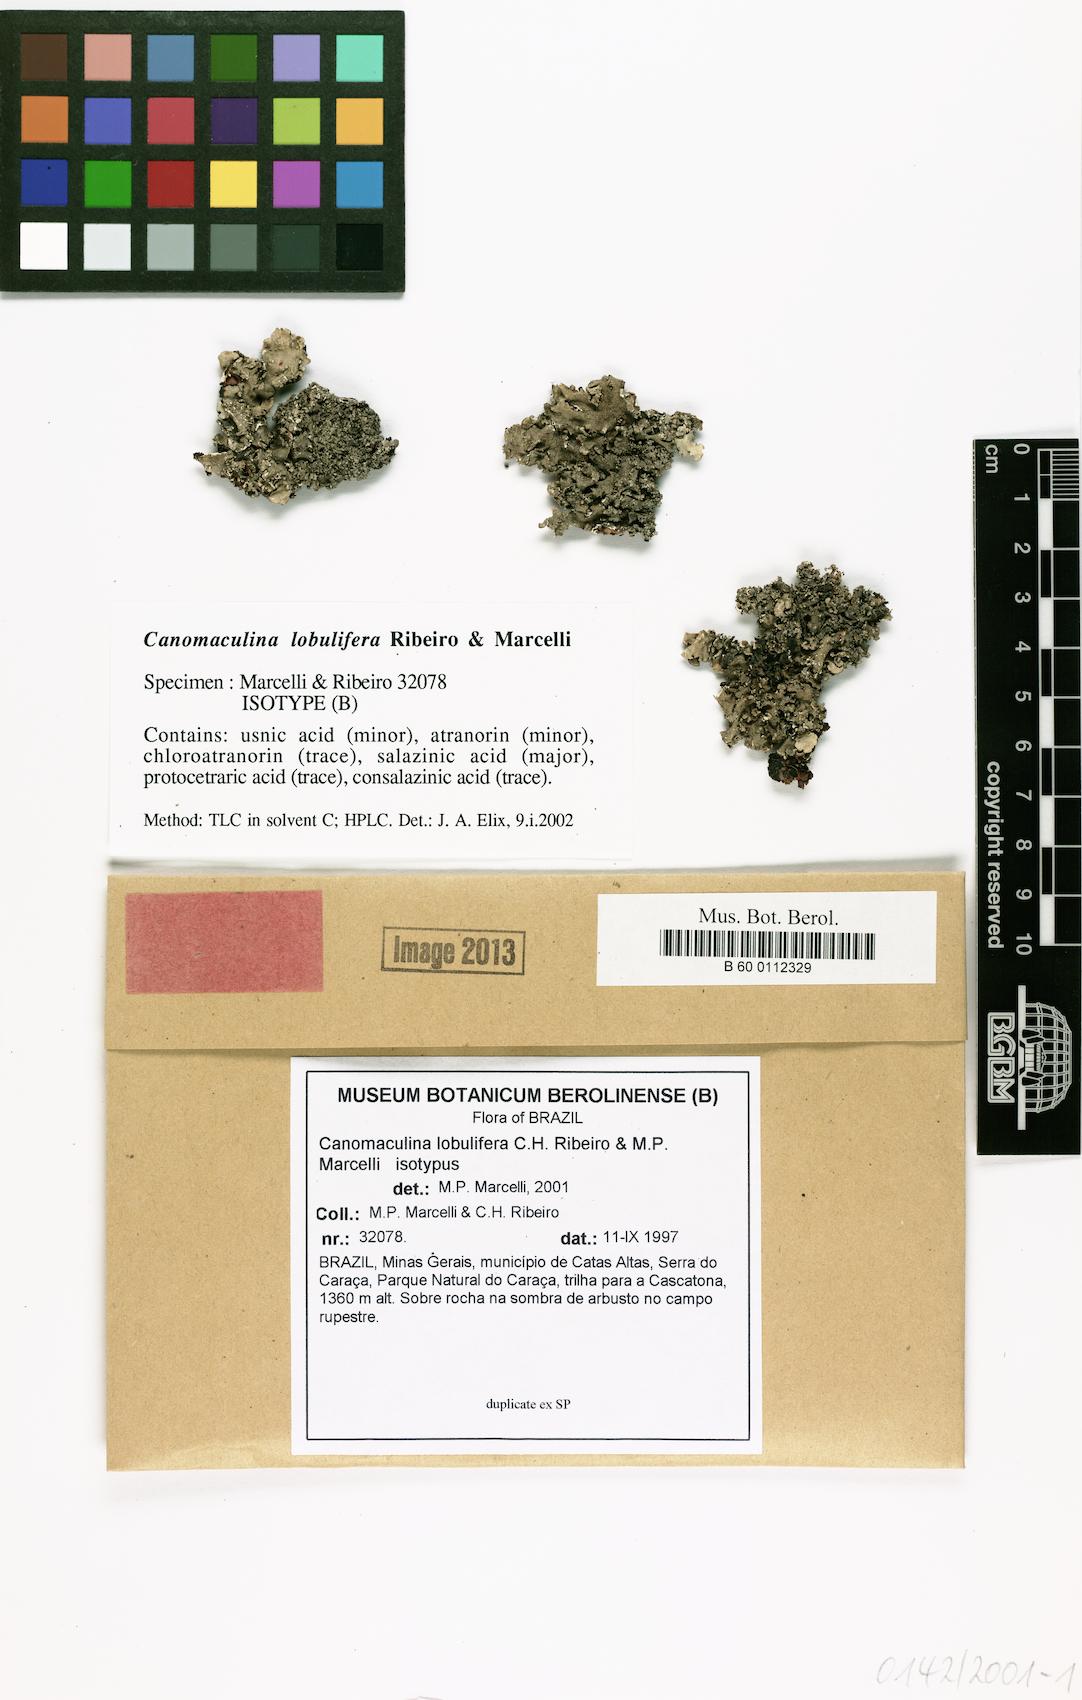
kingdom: Fungi
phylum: Ascomycota
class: Lecanoromycetes
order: Lecanorales
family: Parmeliaceae
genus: Parmotrema
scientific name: Parmotrema lobuliferum
